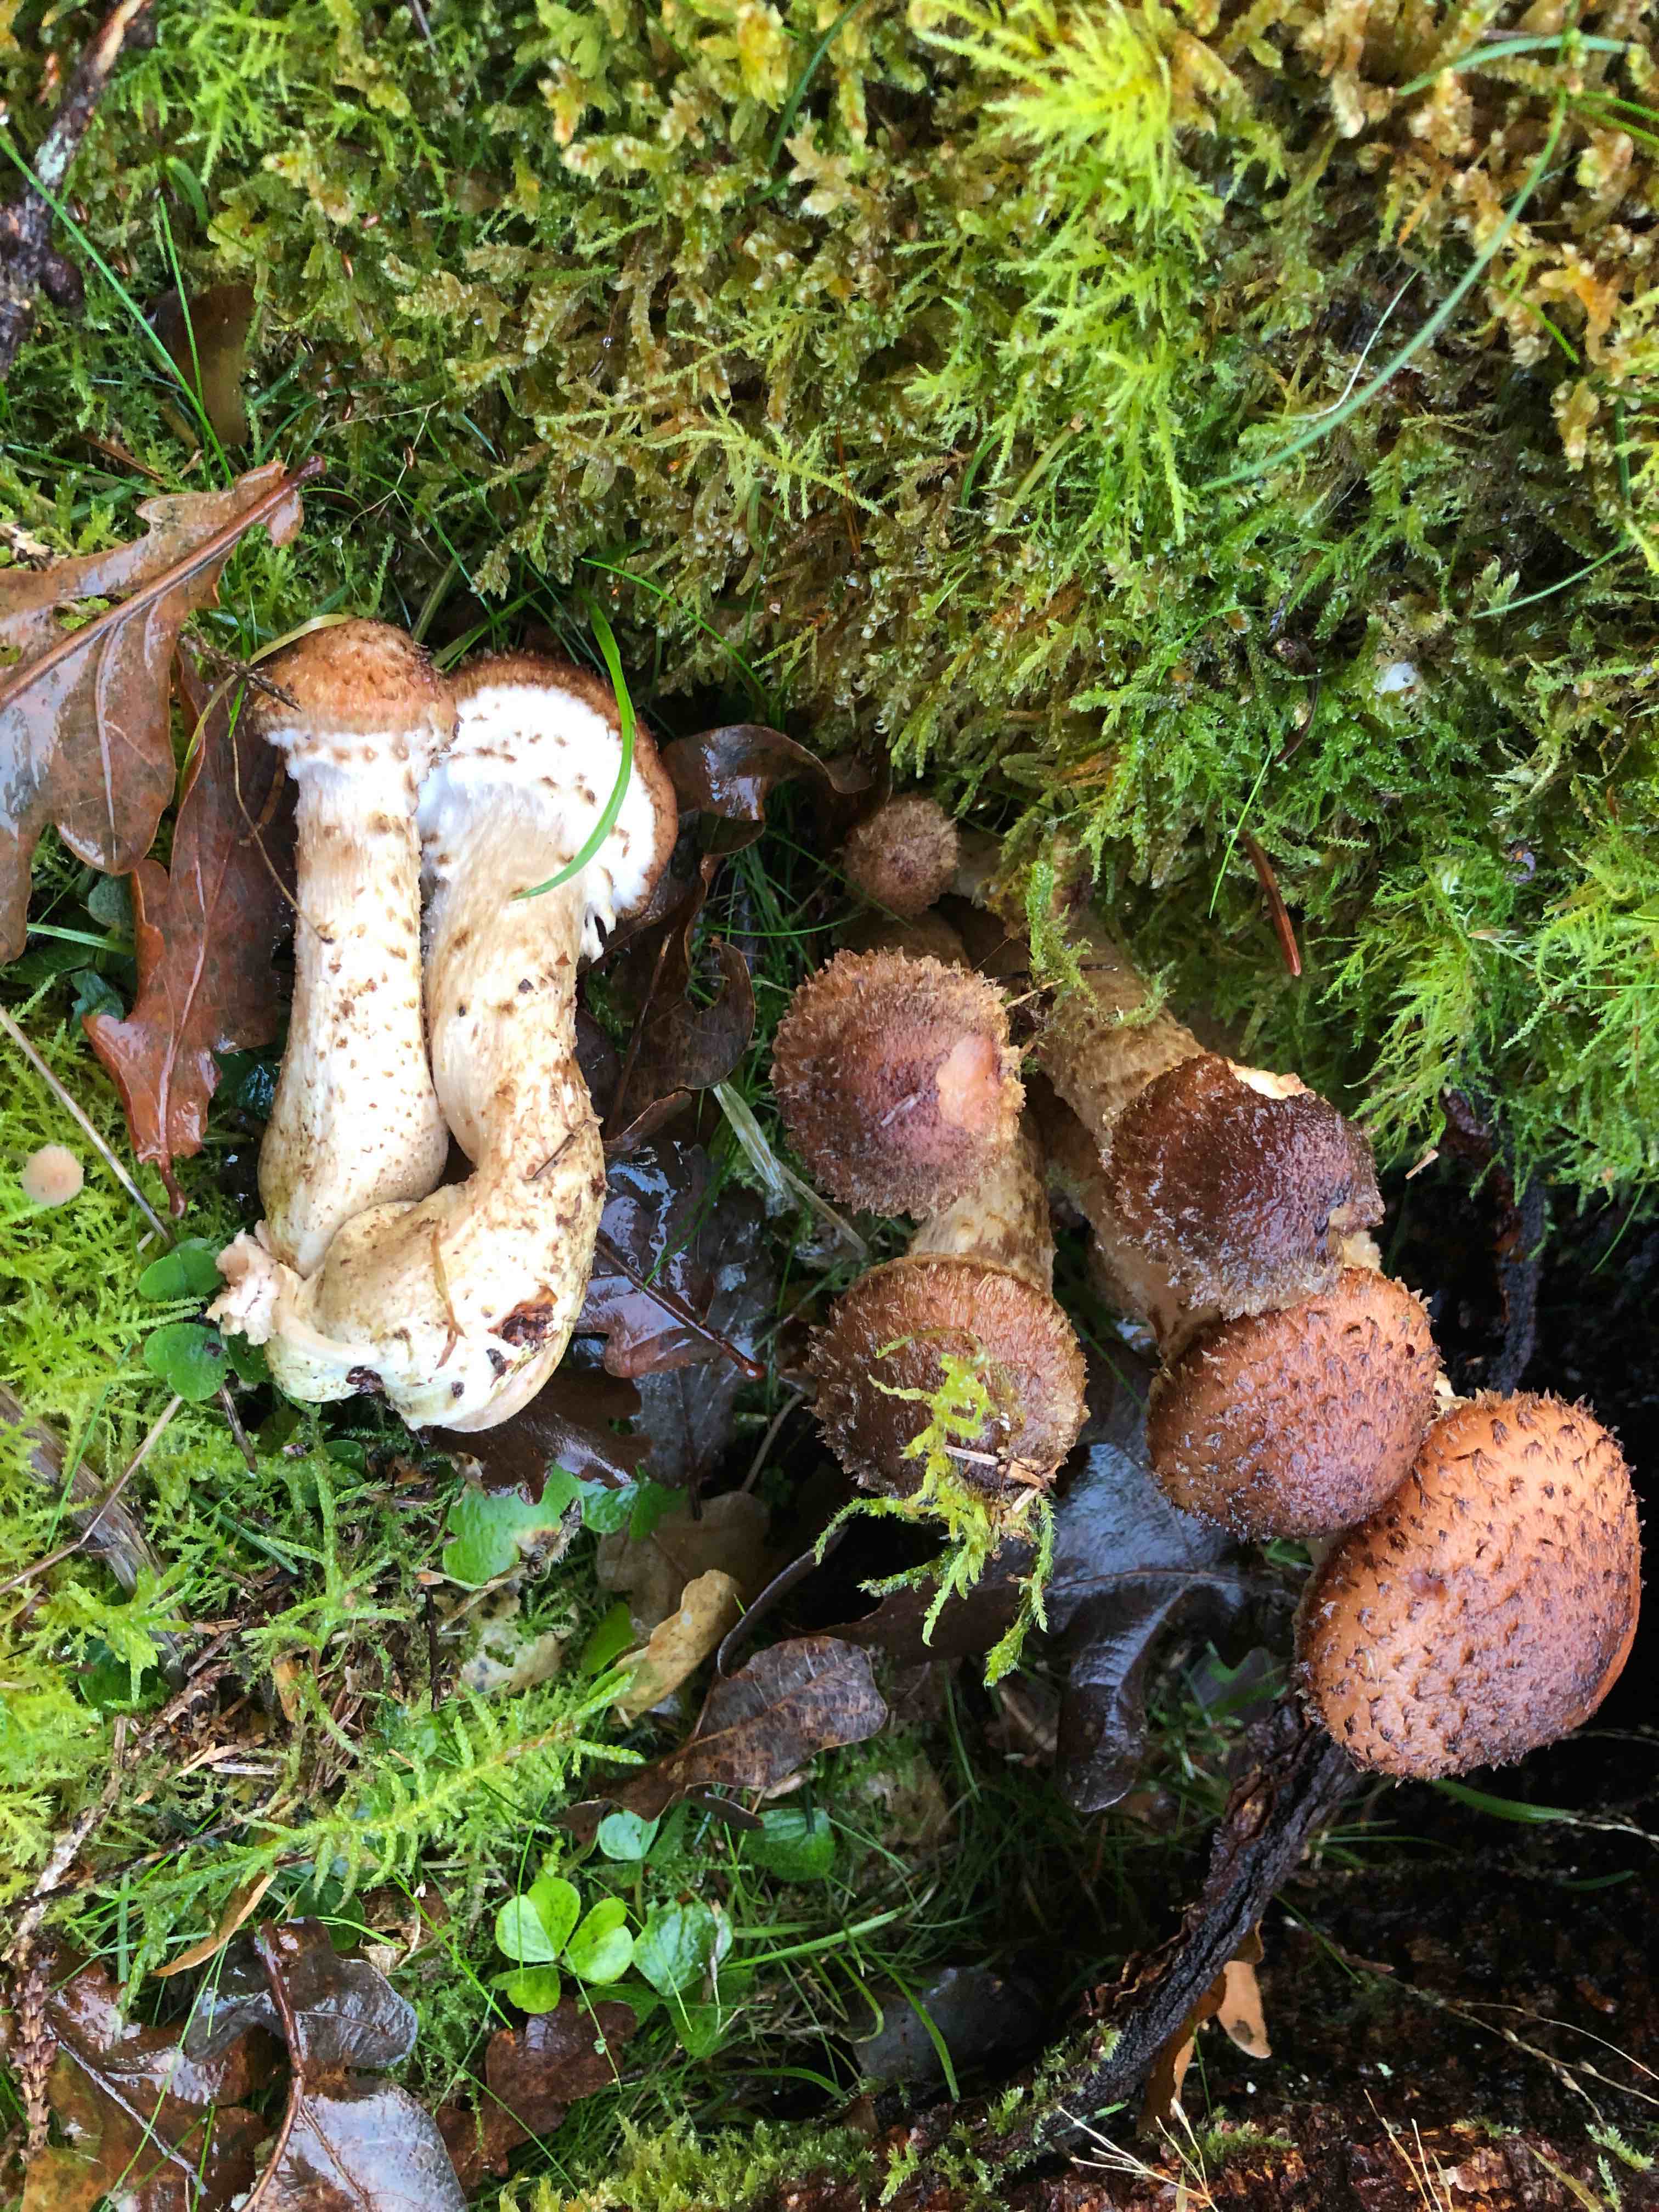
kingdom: Fungi
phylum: Basidiomycota
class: Agaricomycetes
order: Agaricales
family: Physalacriaceae
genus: Armillaria
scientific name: Armillaria ostoyae
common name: mørk honningsvamp
